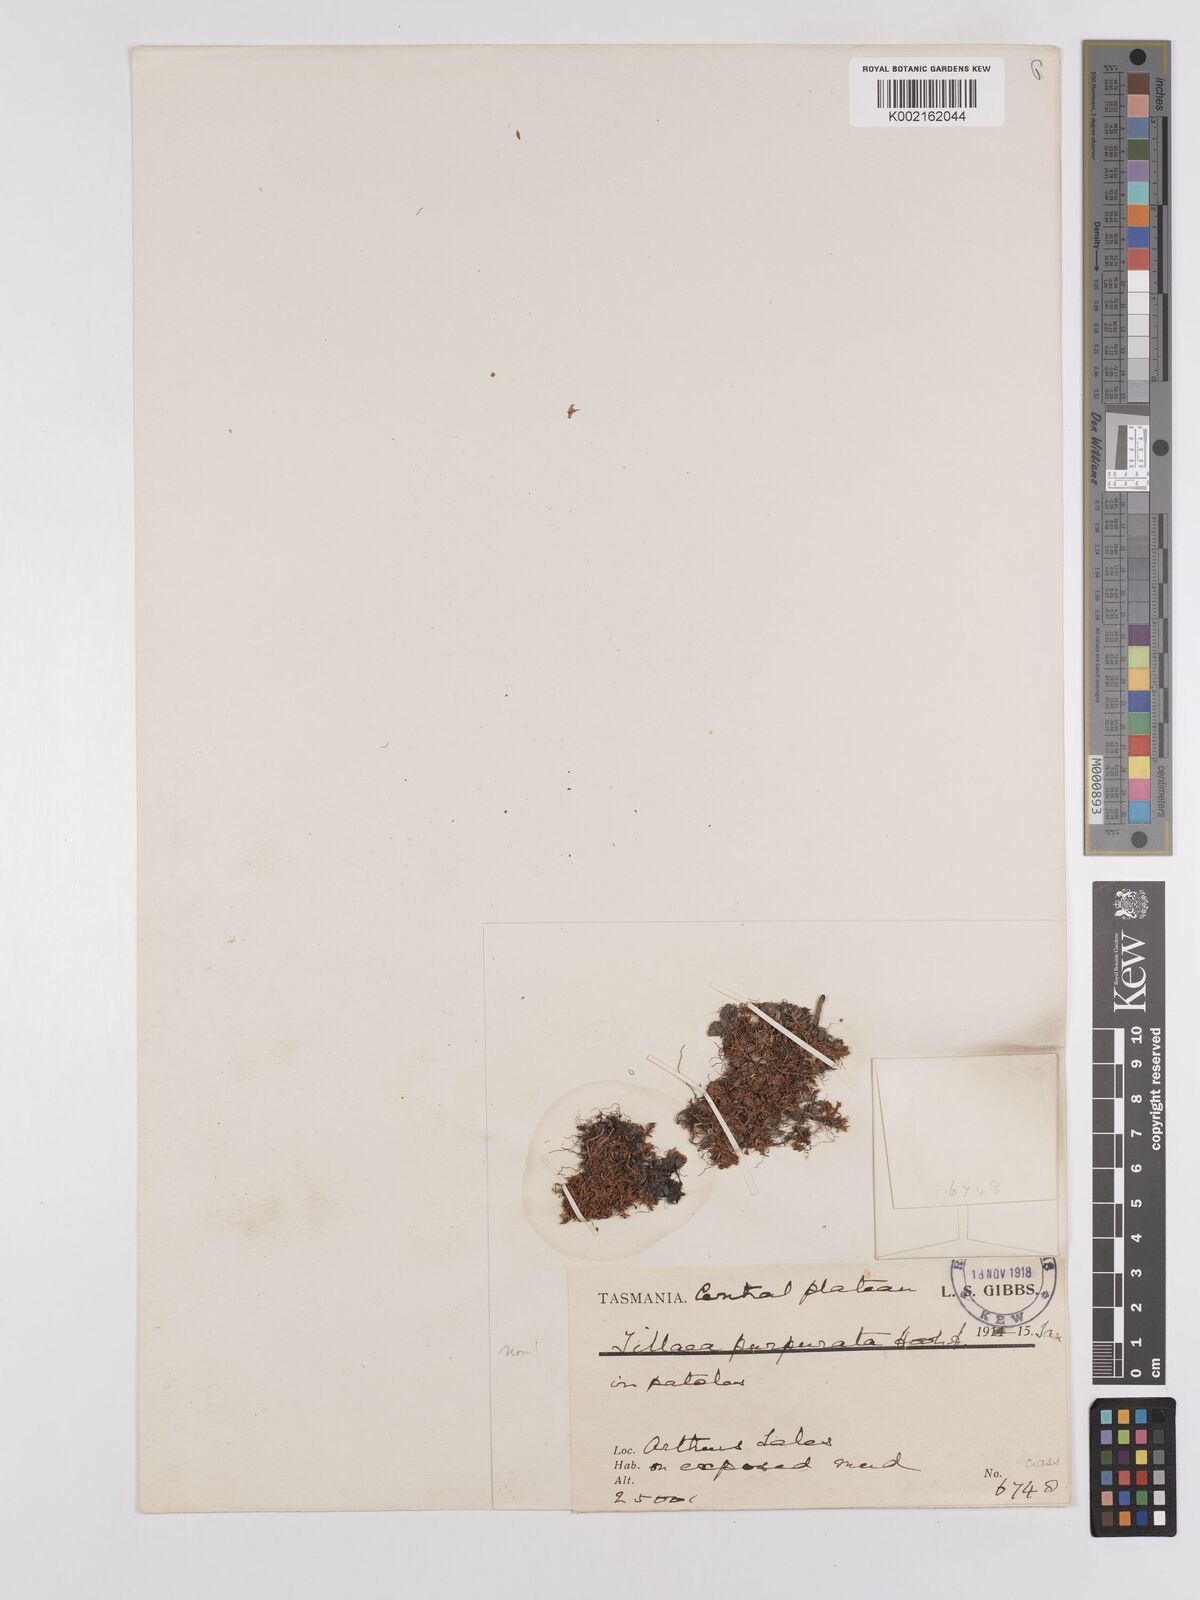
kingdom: Plantae
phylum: Tracheophyta
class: Magnoliopsida
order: Saxifragales
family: Crassulaceae
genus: Crassula
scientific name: Crassula peduncularis
